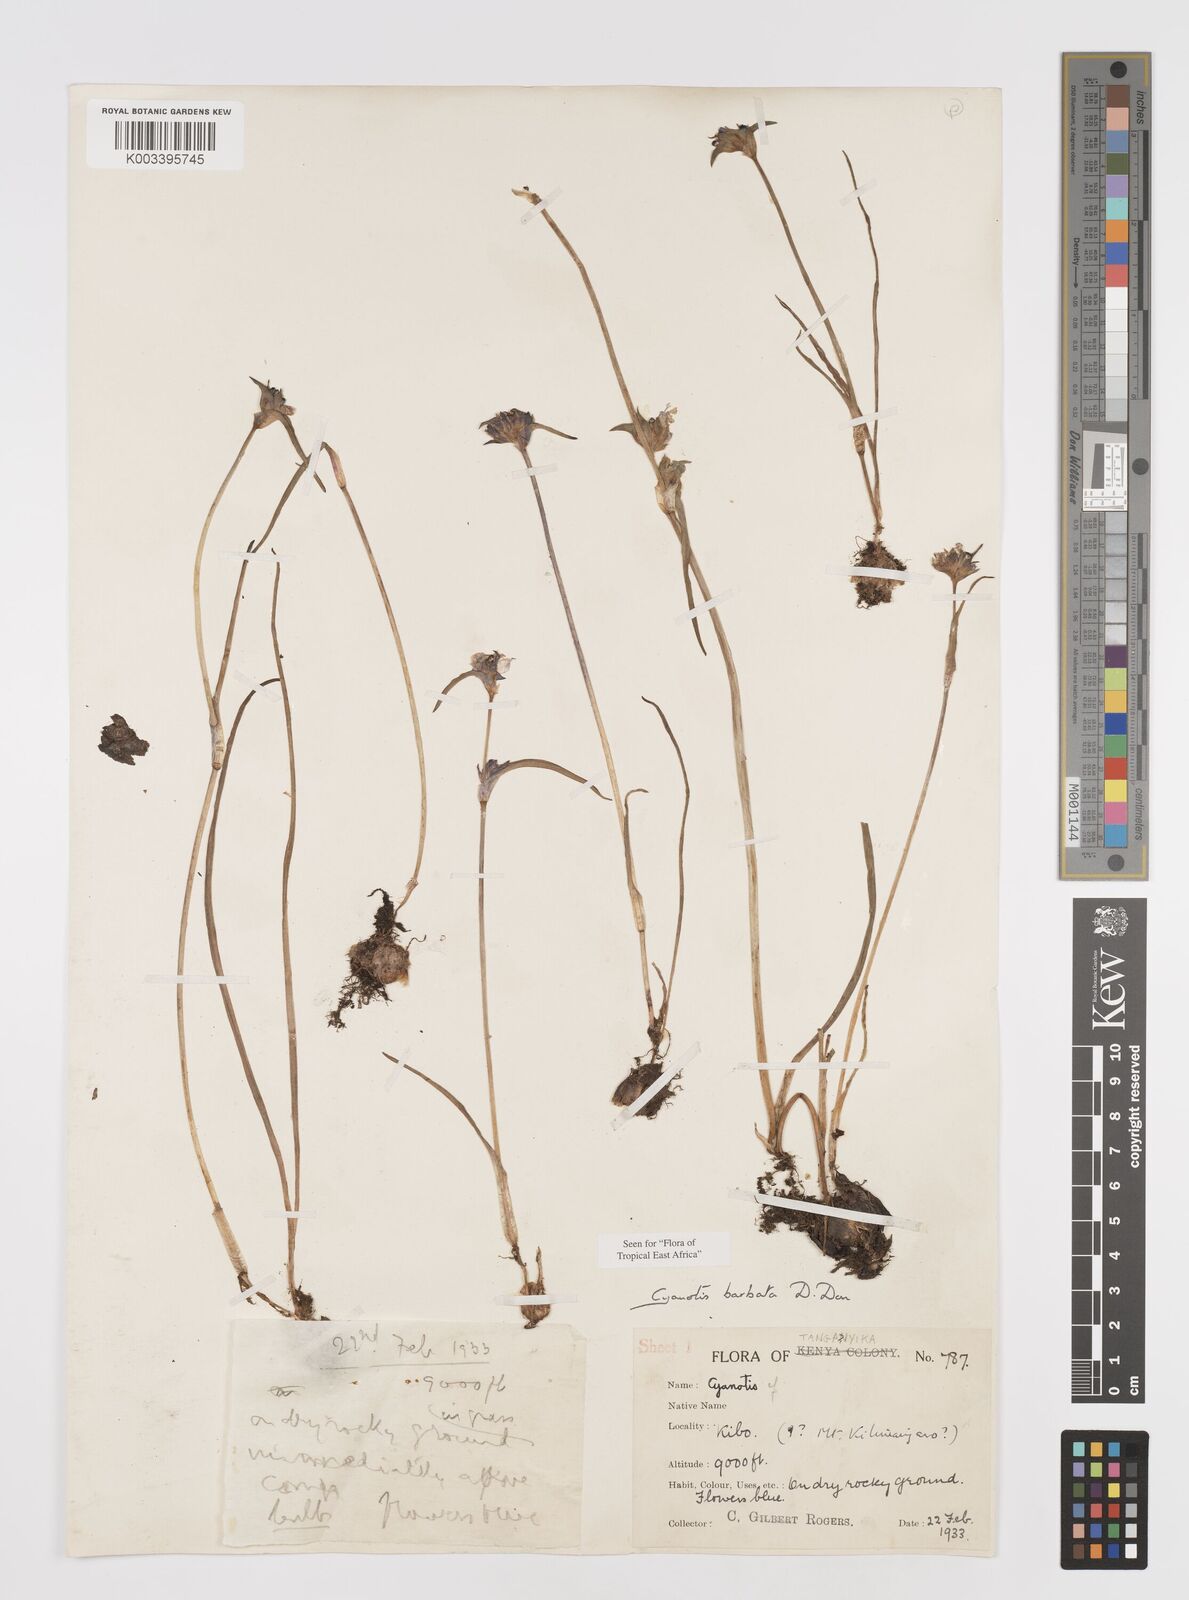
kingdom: Plantae
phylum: Tracheophyta
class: Liliopsida
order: Commelinales
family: Commelinaceae
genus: Cyanotis
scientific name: Cyanotis vaga
